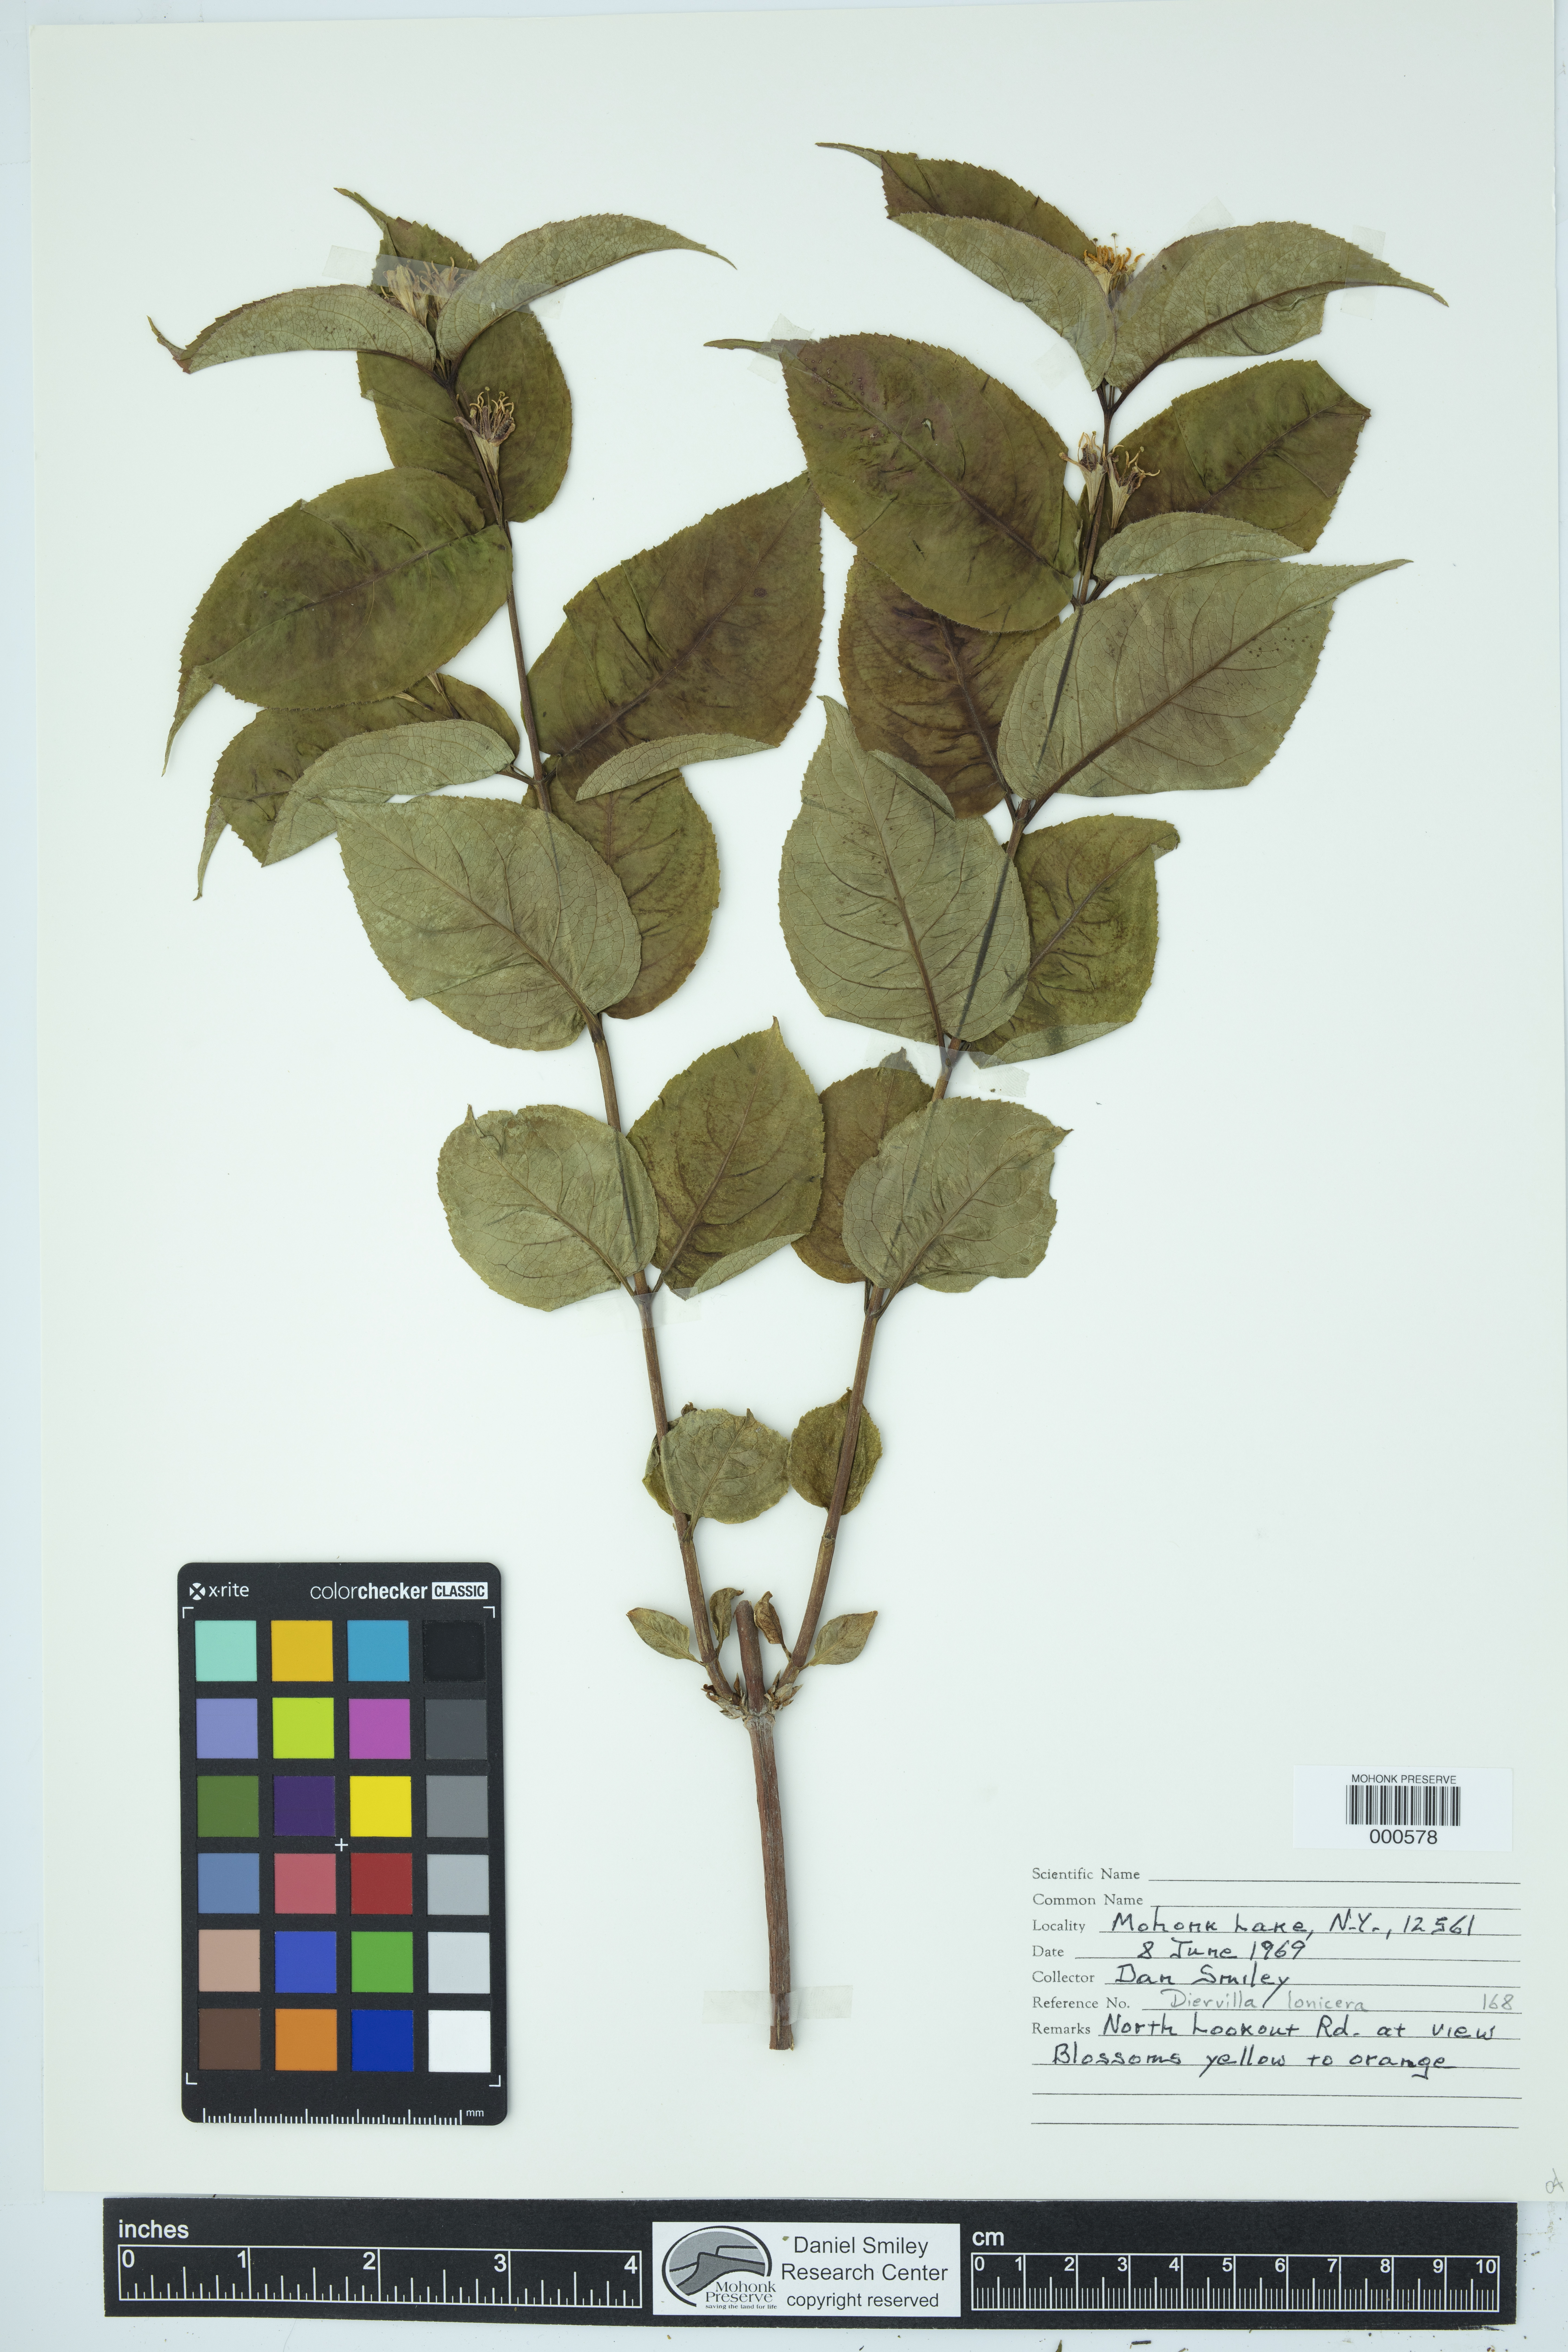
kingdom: Plantae
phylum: Tracheophyta
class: Magnoliopsida
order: Dipsacales
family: Caprifoliaceae
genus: Diervilla
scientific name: Diervilla lonicera
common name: Bush-honeysuckle
